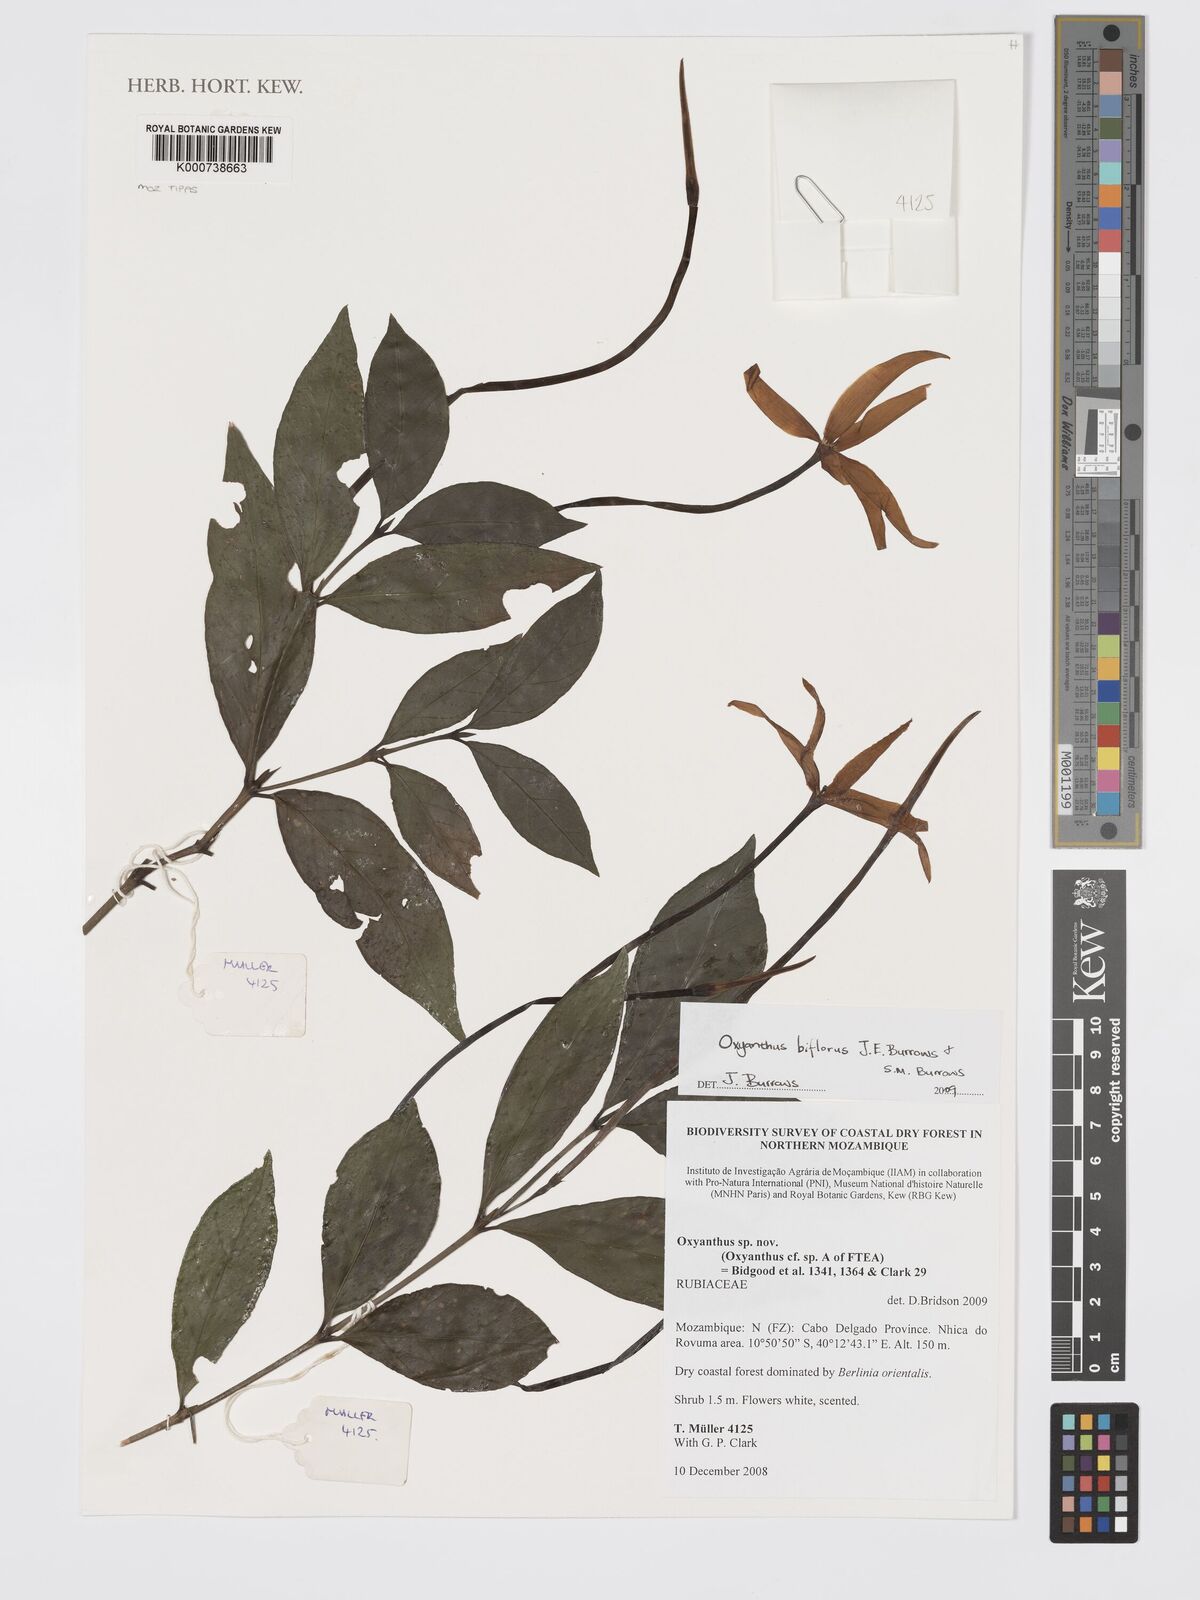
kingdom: Plantae
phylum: Tracheophyta
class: Magnoliopsida
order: Gentianales
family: Rubiaceae
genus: Oxyanthus
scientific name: Oxyanthus biflorus
